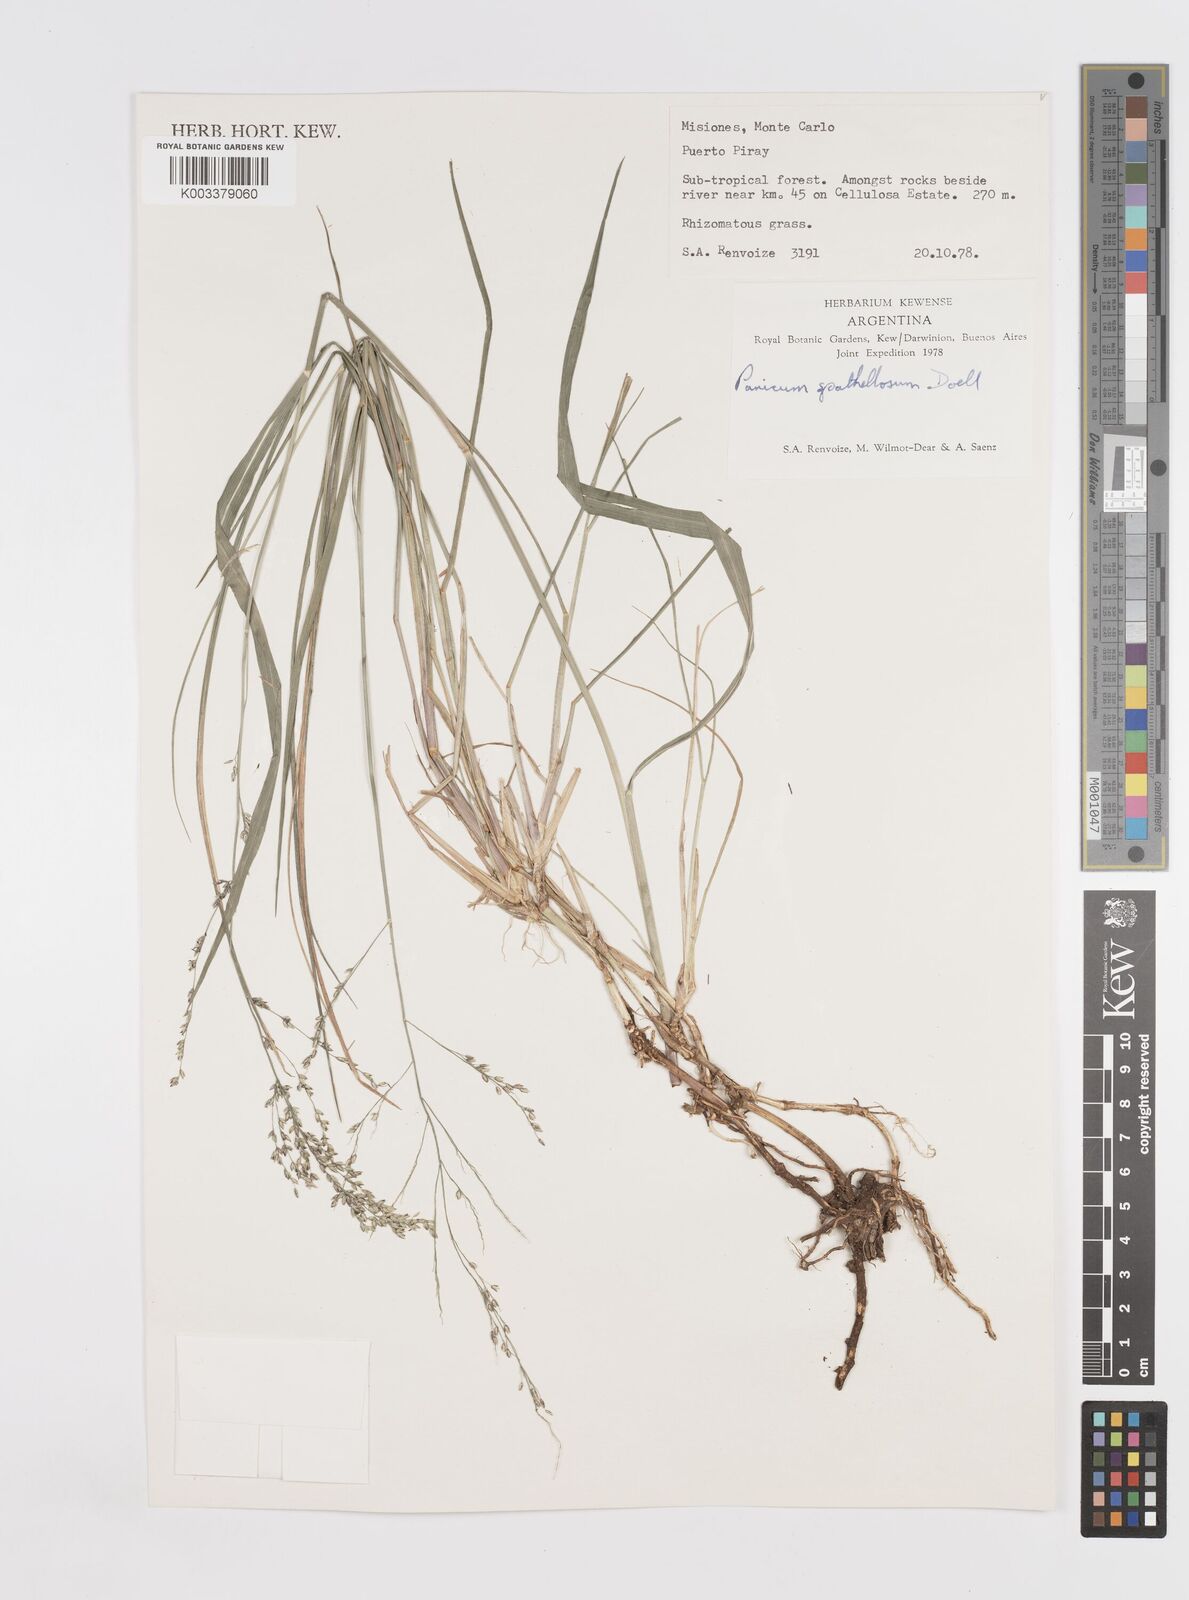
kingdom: Plantae
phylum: Tracheophyta
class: Liliopsida
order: Poales
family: Poaceae
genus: Steinchisma
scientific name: Steinchisma spathellosum
